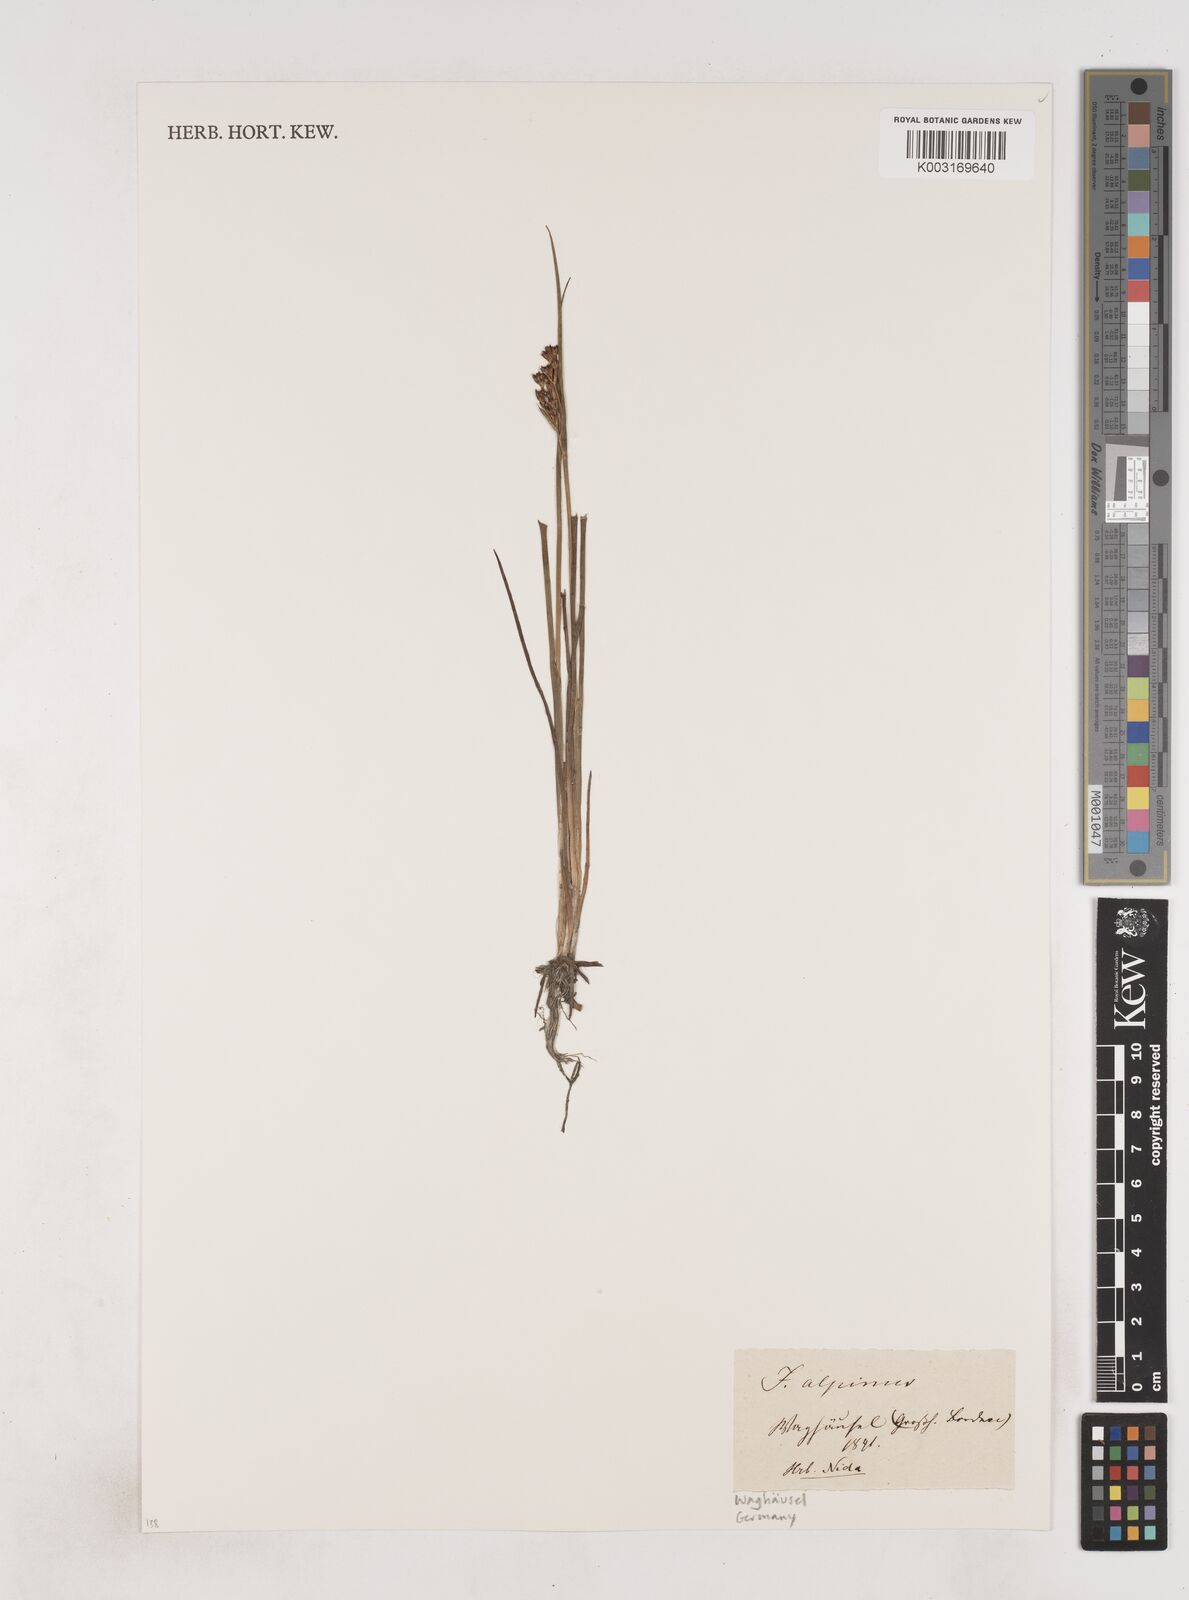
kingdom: Plantae
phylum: Tracheophyta
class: Liliopsida
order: Poales
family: Juncaceae
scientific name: Juncaceae
